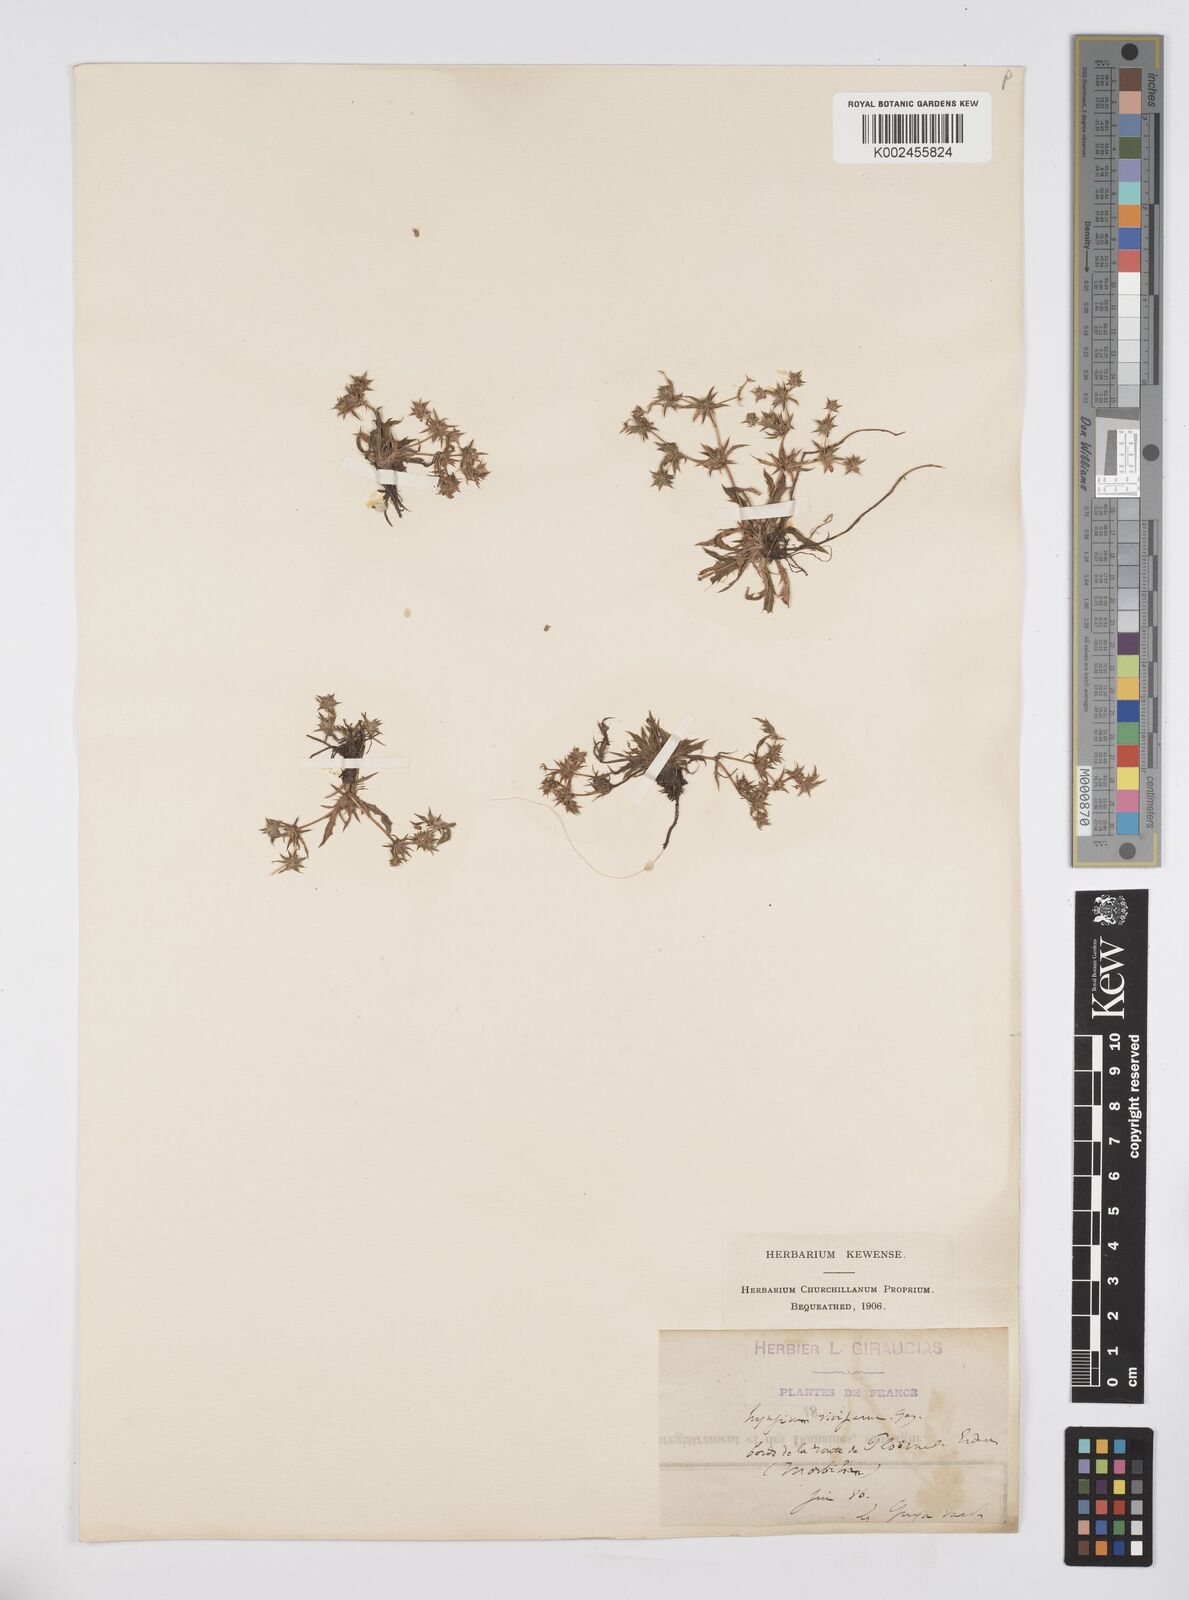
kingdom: Plantae
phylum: Tracheophyta
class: Magnoliopsida
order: Apiales
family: Apiaceae
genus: Eryngium
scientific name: Eryngium viviparum
